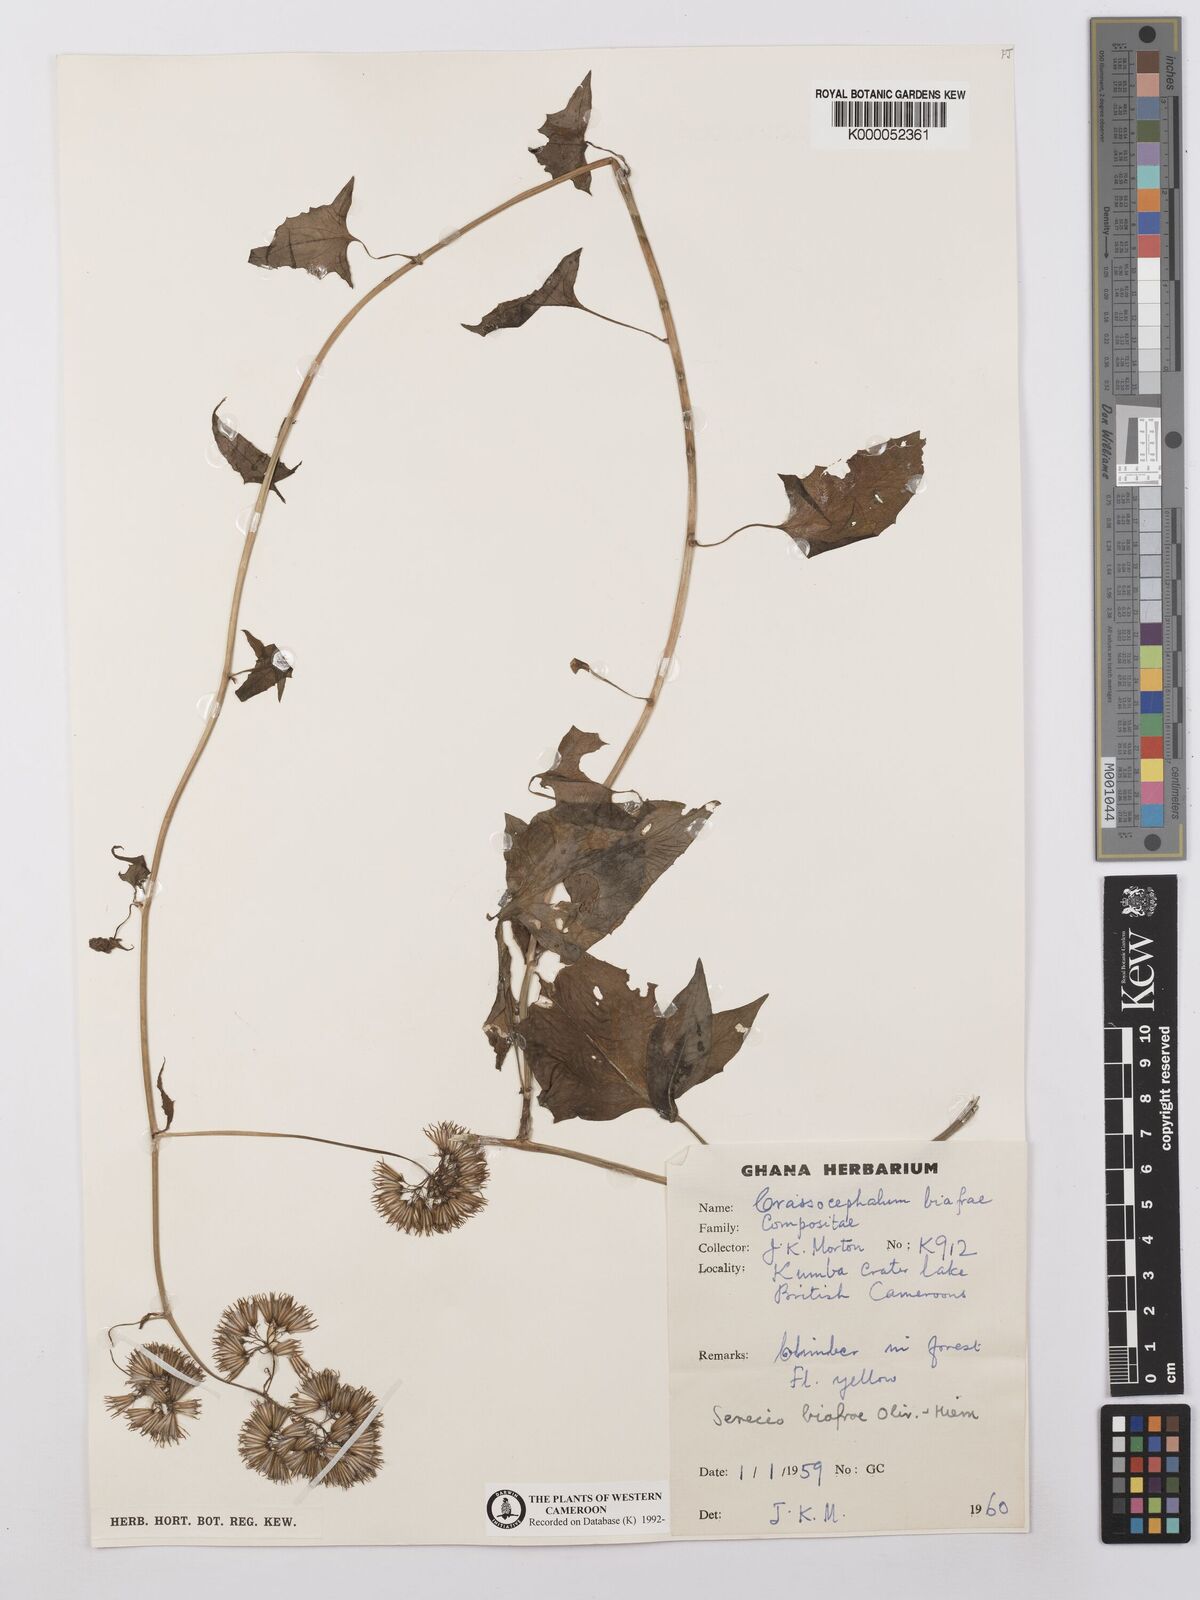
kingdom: Plantae
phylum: Tracheophyta
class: Magnoliopsida
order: Asterales
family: Asteraceae
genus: Solanecio
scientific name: Solanecio biafrae
